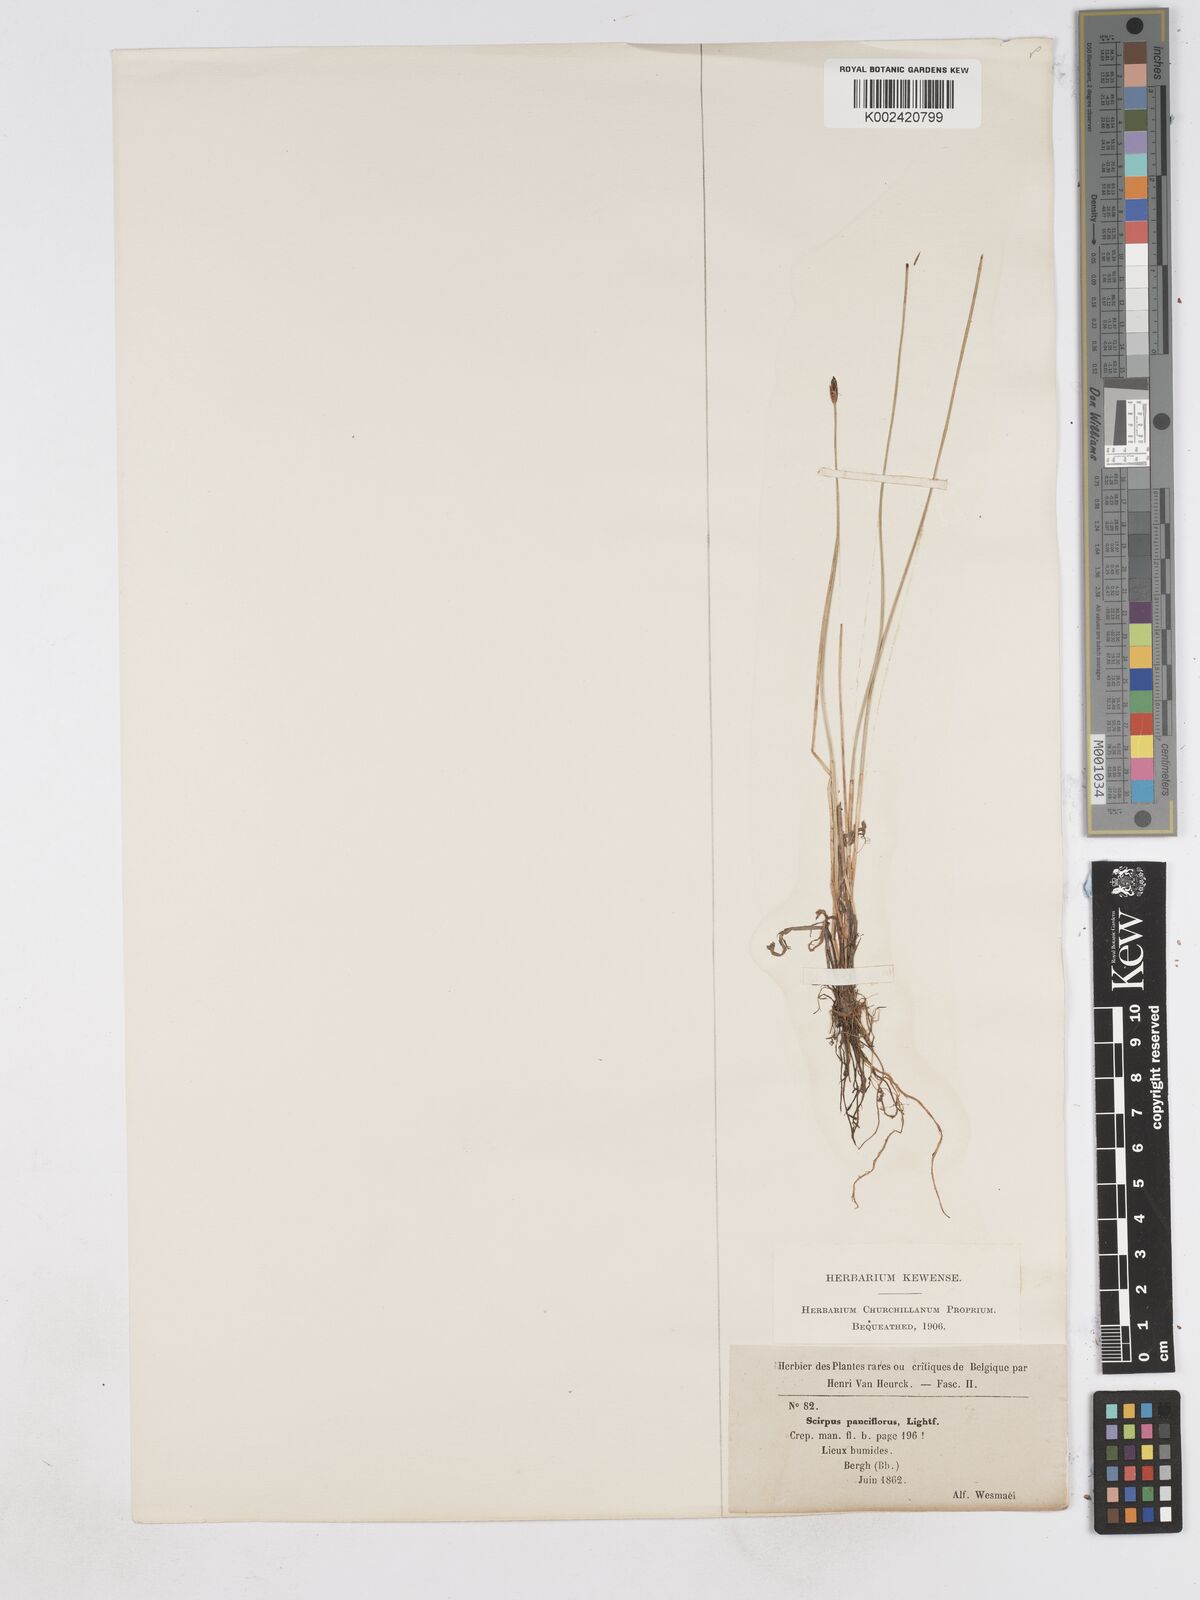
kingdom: Plantae
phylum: Tracheophyta
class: Liliopsida
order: Poales
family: Cyperaceae
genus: Eleocharis
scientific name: Eleocharis quinqueflora
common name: Few-flowered spike-rush
